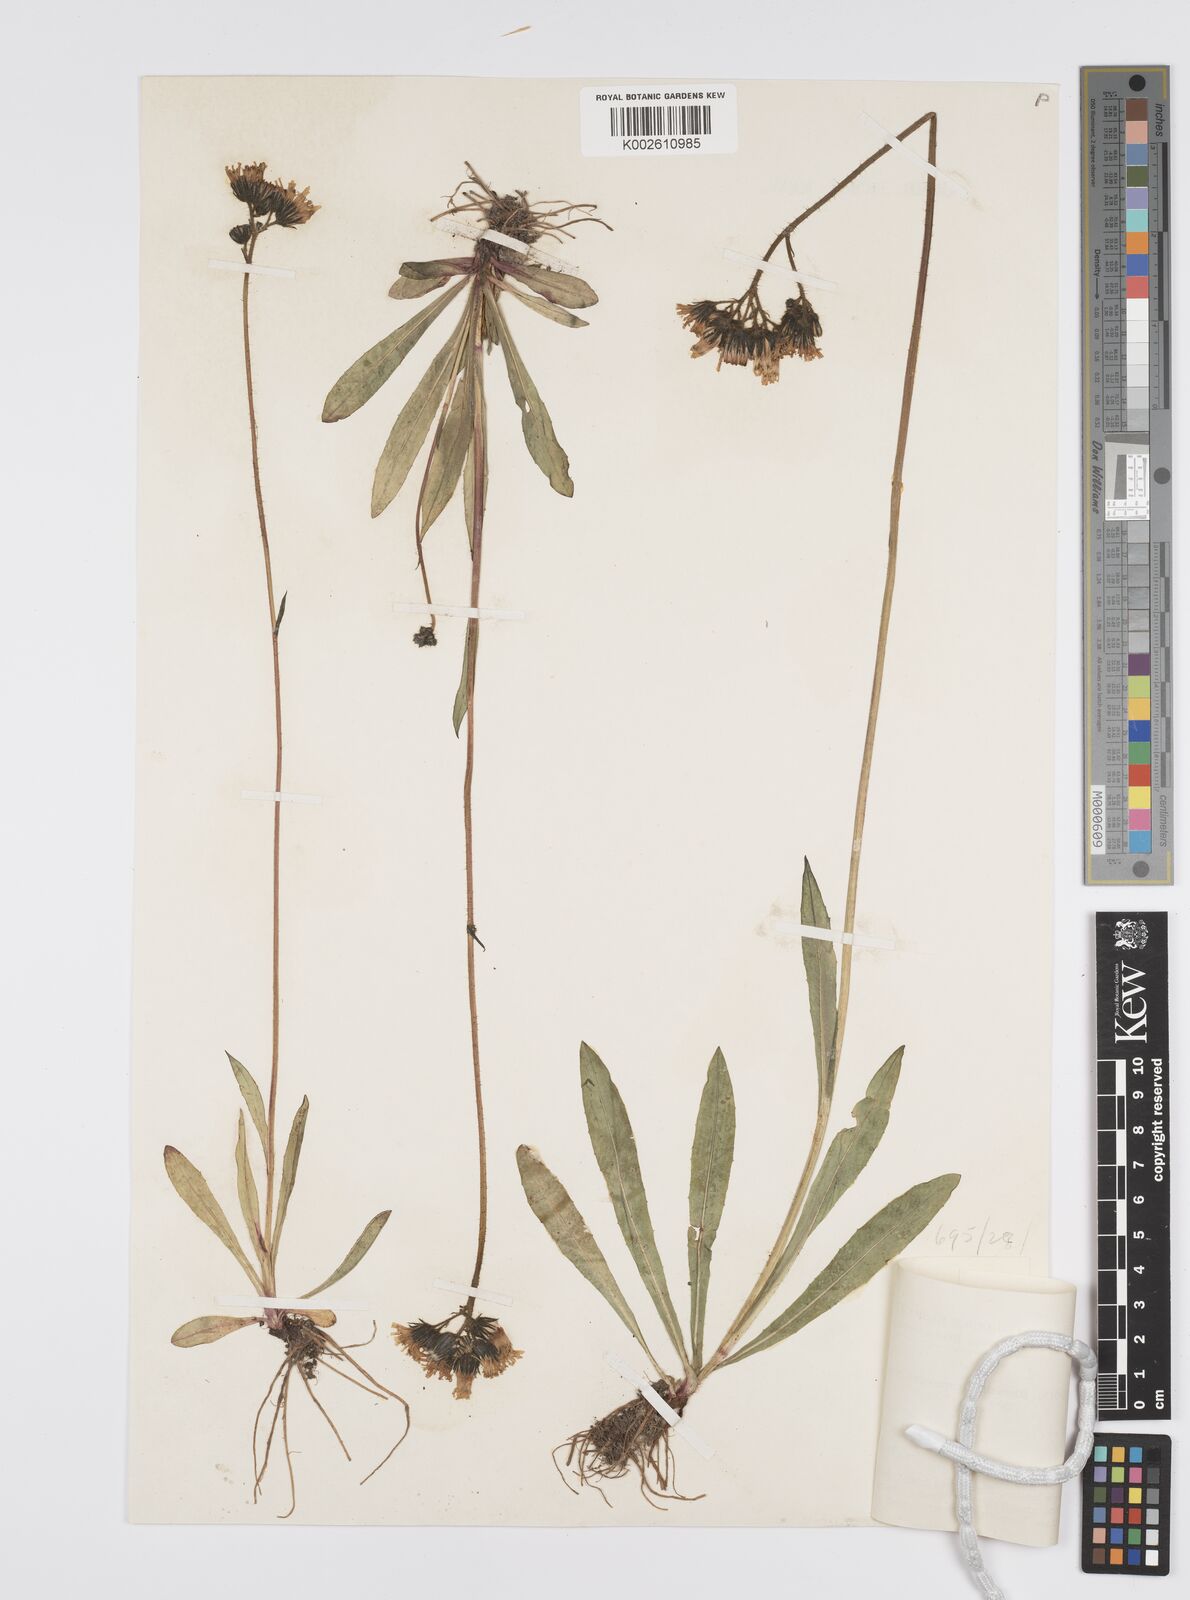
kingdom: Plantae
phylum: Tracheophyta
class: Magnoliopsida
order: Asterales
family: Asteraceae
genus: Pilosella
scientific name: Pilosella piloselloides
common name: Glaucous king-devil
